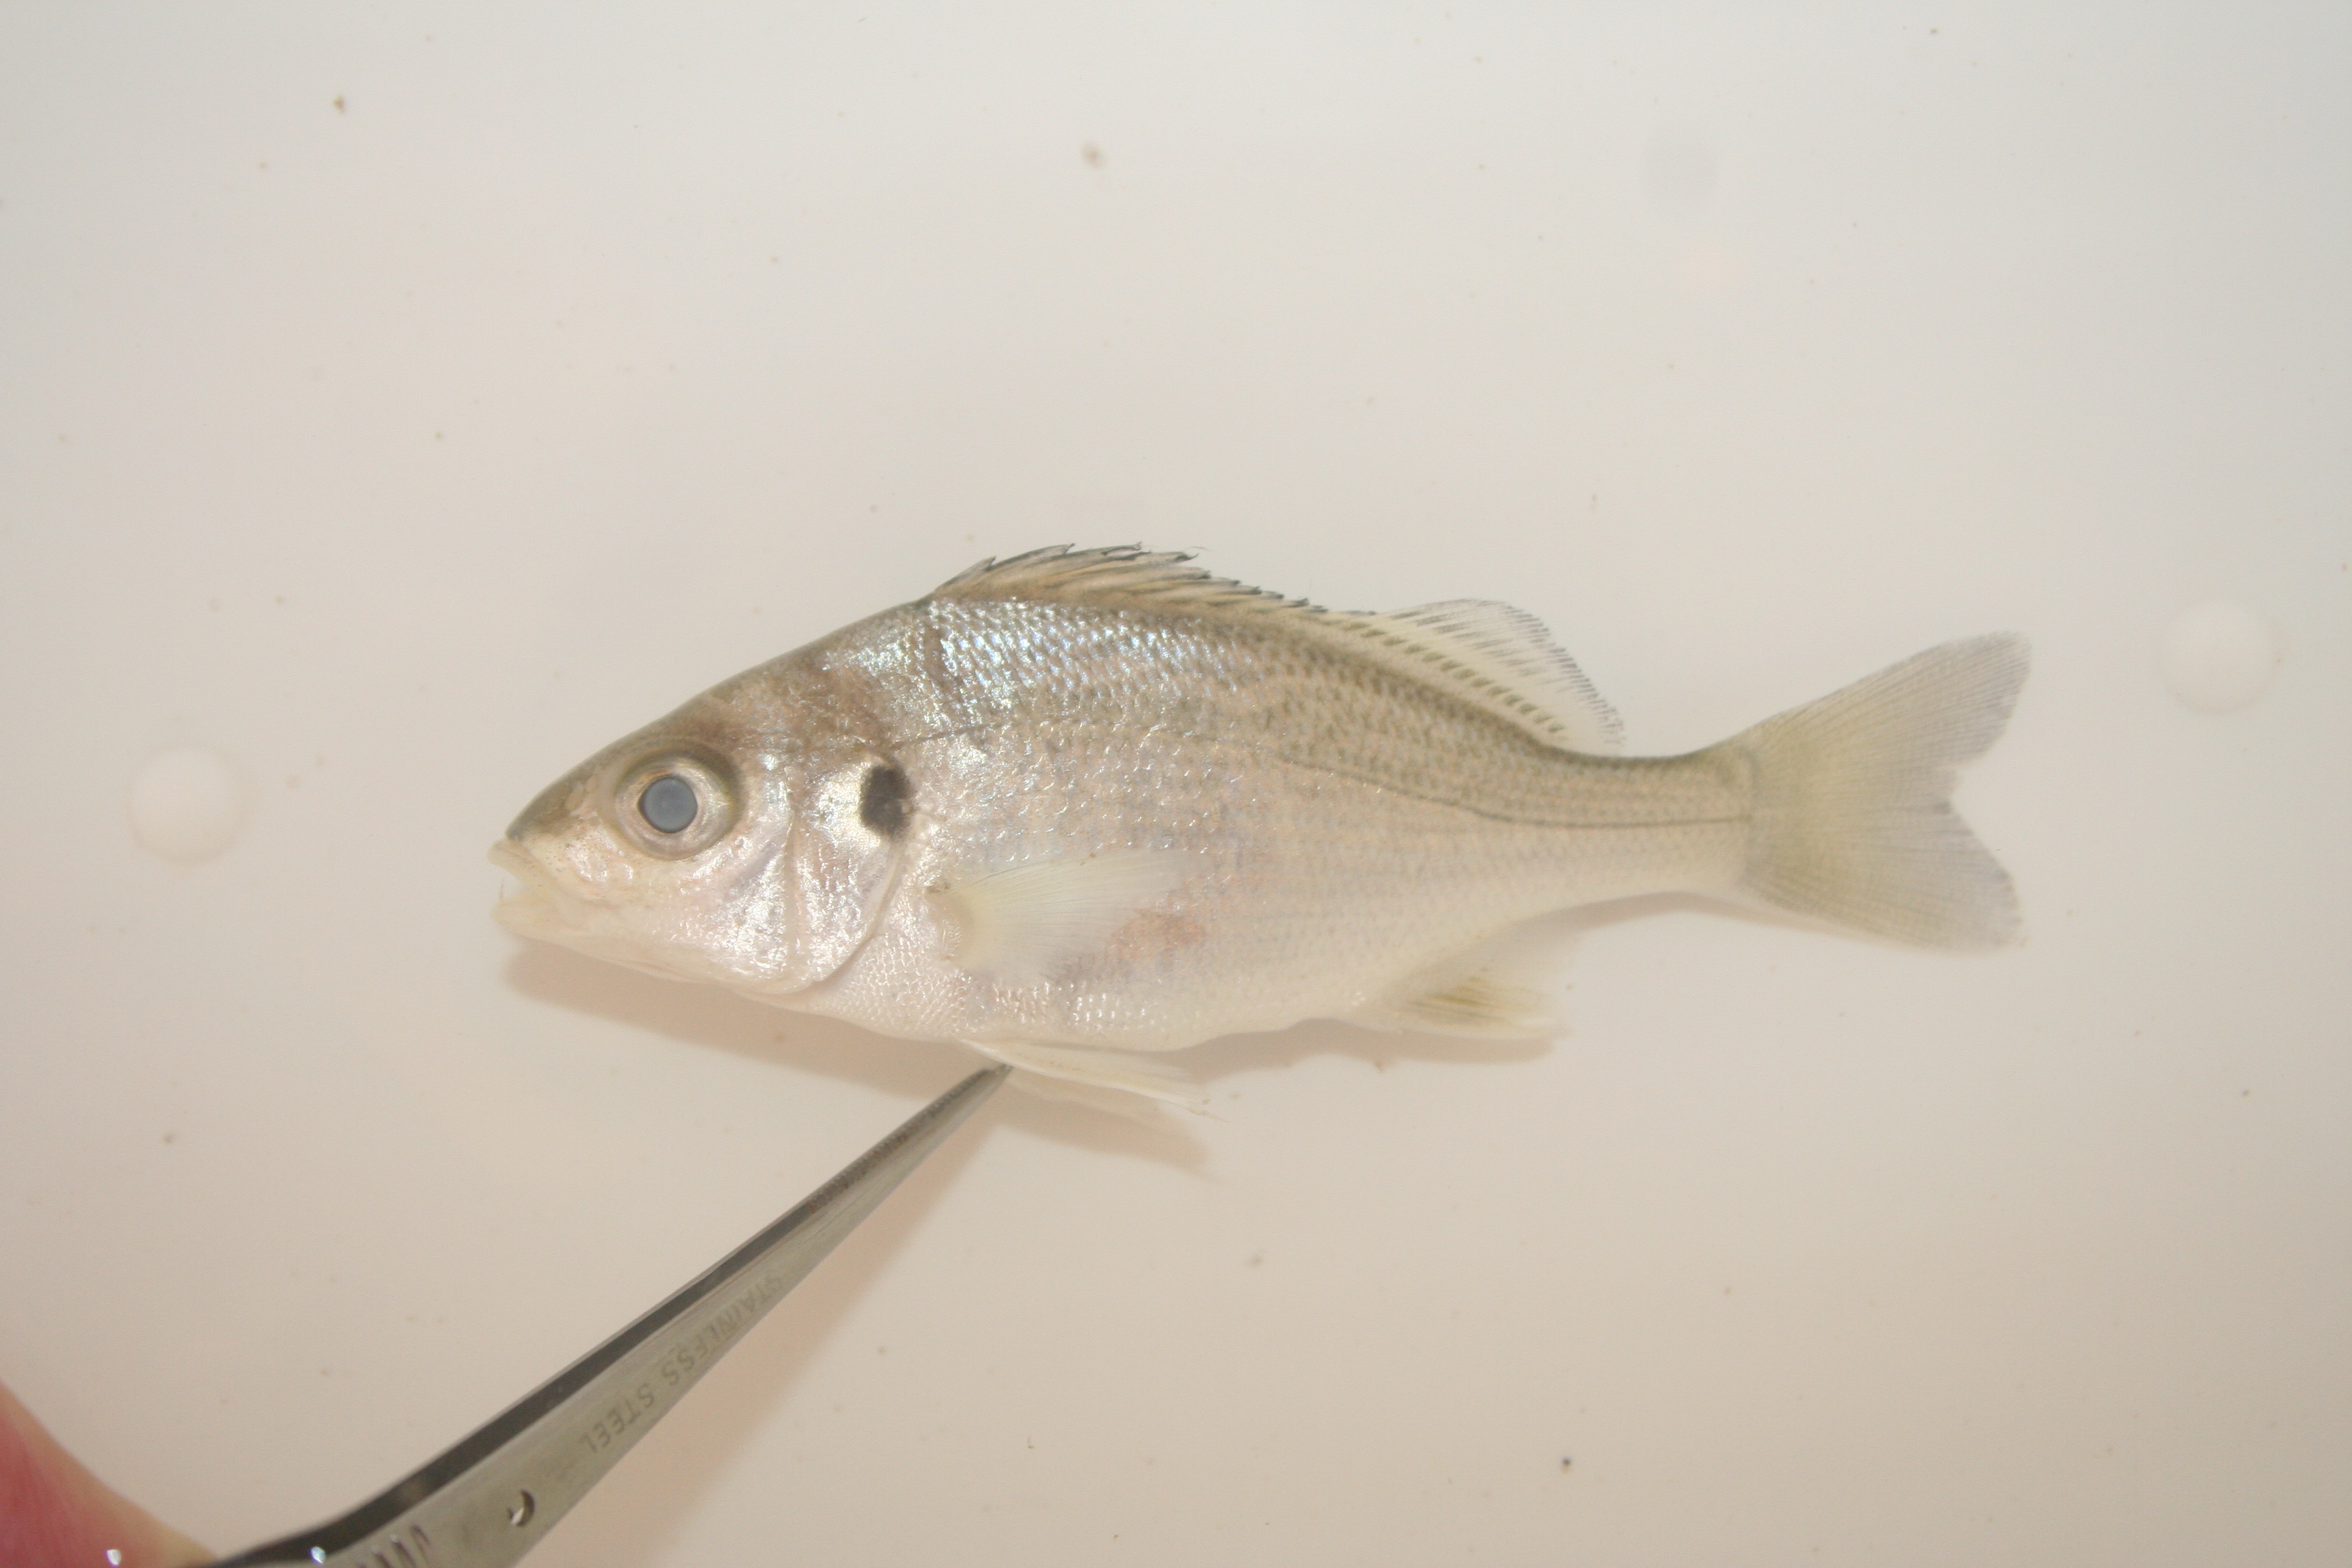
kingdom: Animalia
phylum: Chordata
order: Perciformes
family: Haemulidae
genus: Pomadasys
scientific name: Pomadasys perotaei
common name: Parrot grunt
